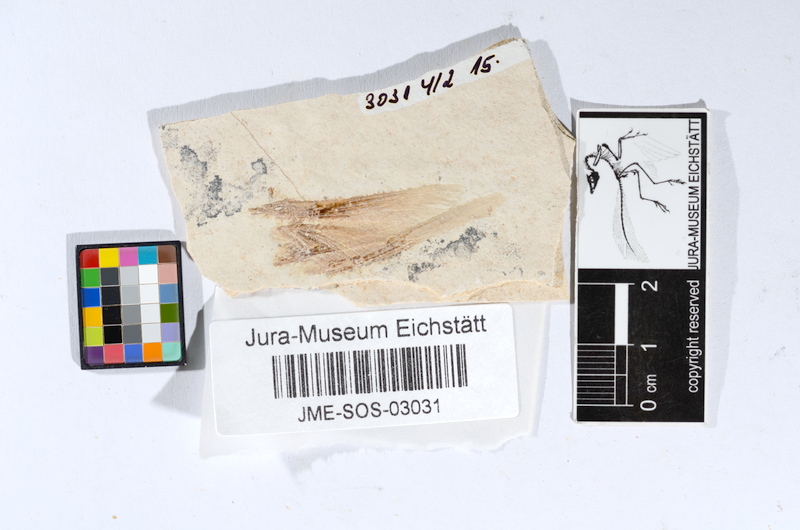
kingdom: Animalia
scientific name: Animalia
